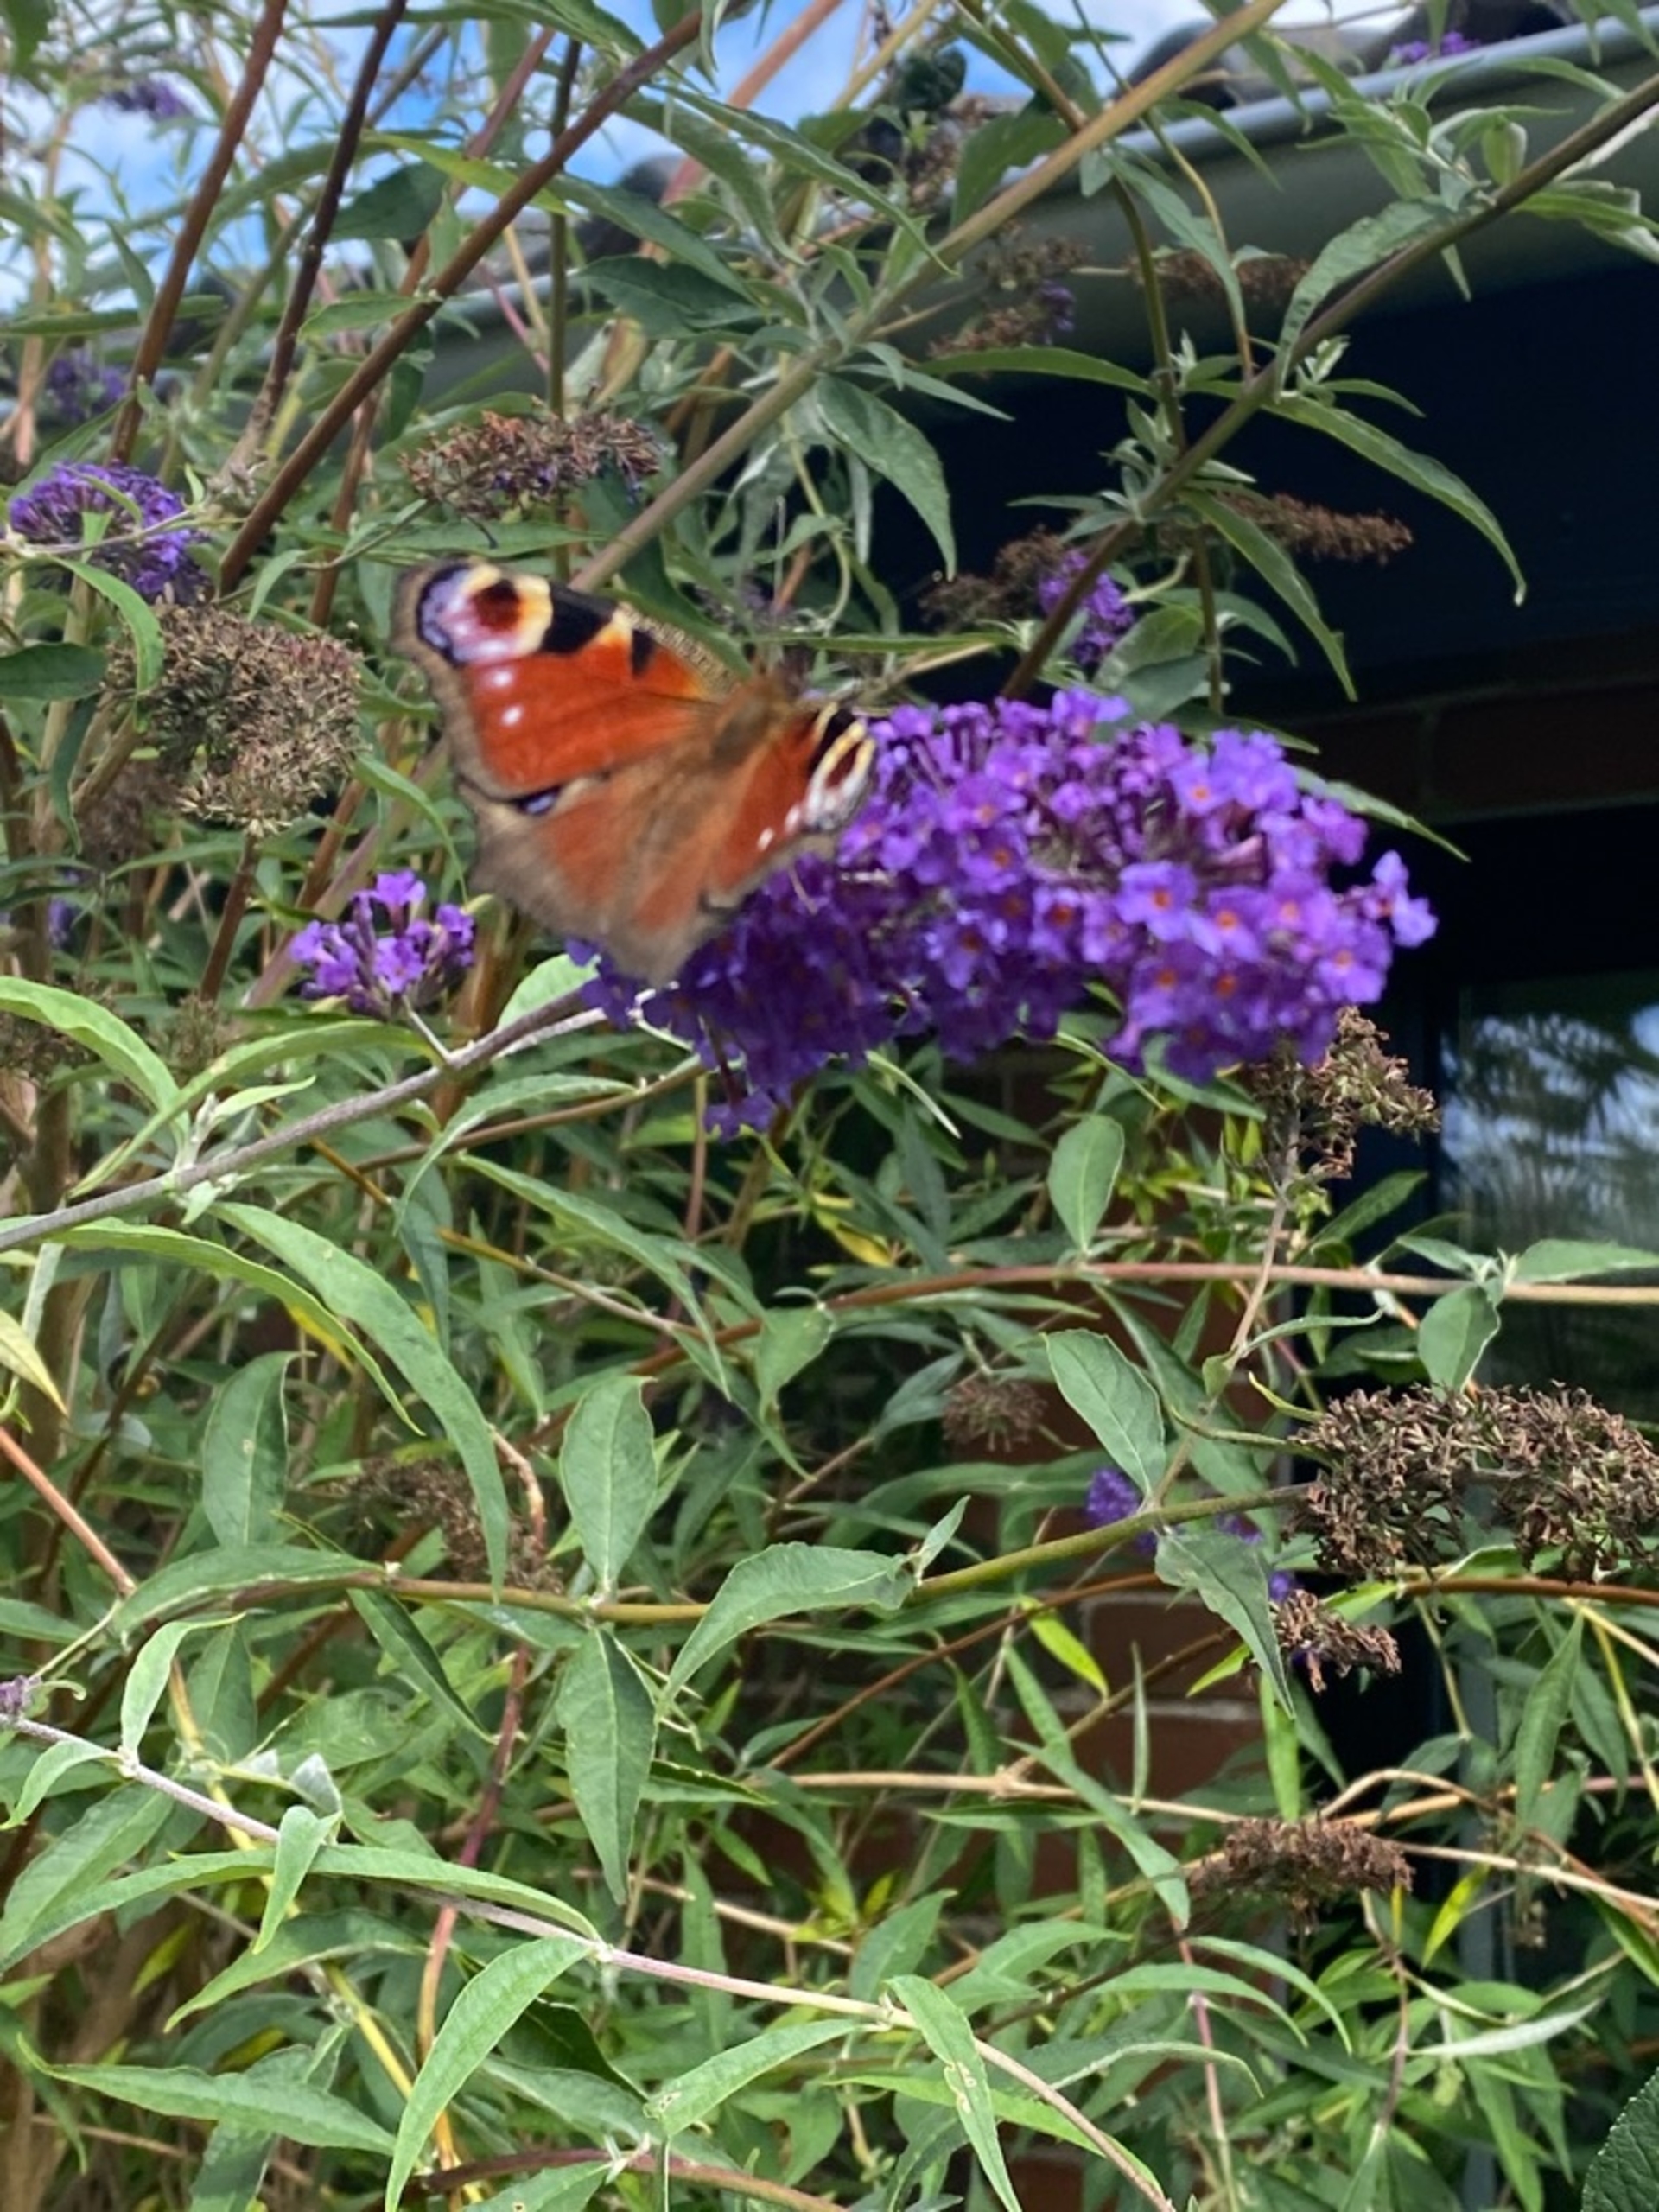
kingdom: Animalia
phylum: Arthropoda
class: Insecta
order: Lepidoptera
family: Nymphalidae
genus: Aglais
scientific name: Aglais io
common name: Dagpåfugleøje
